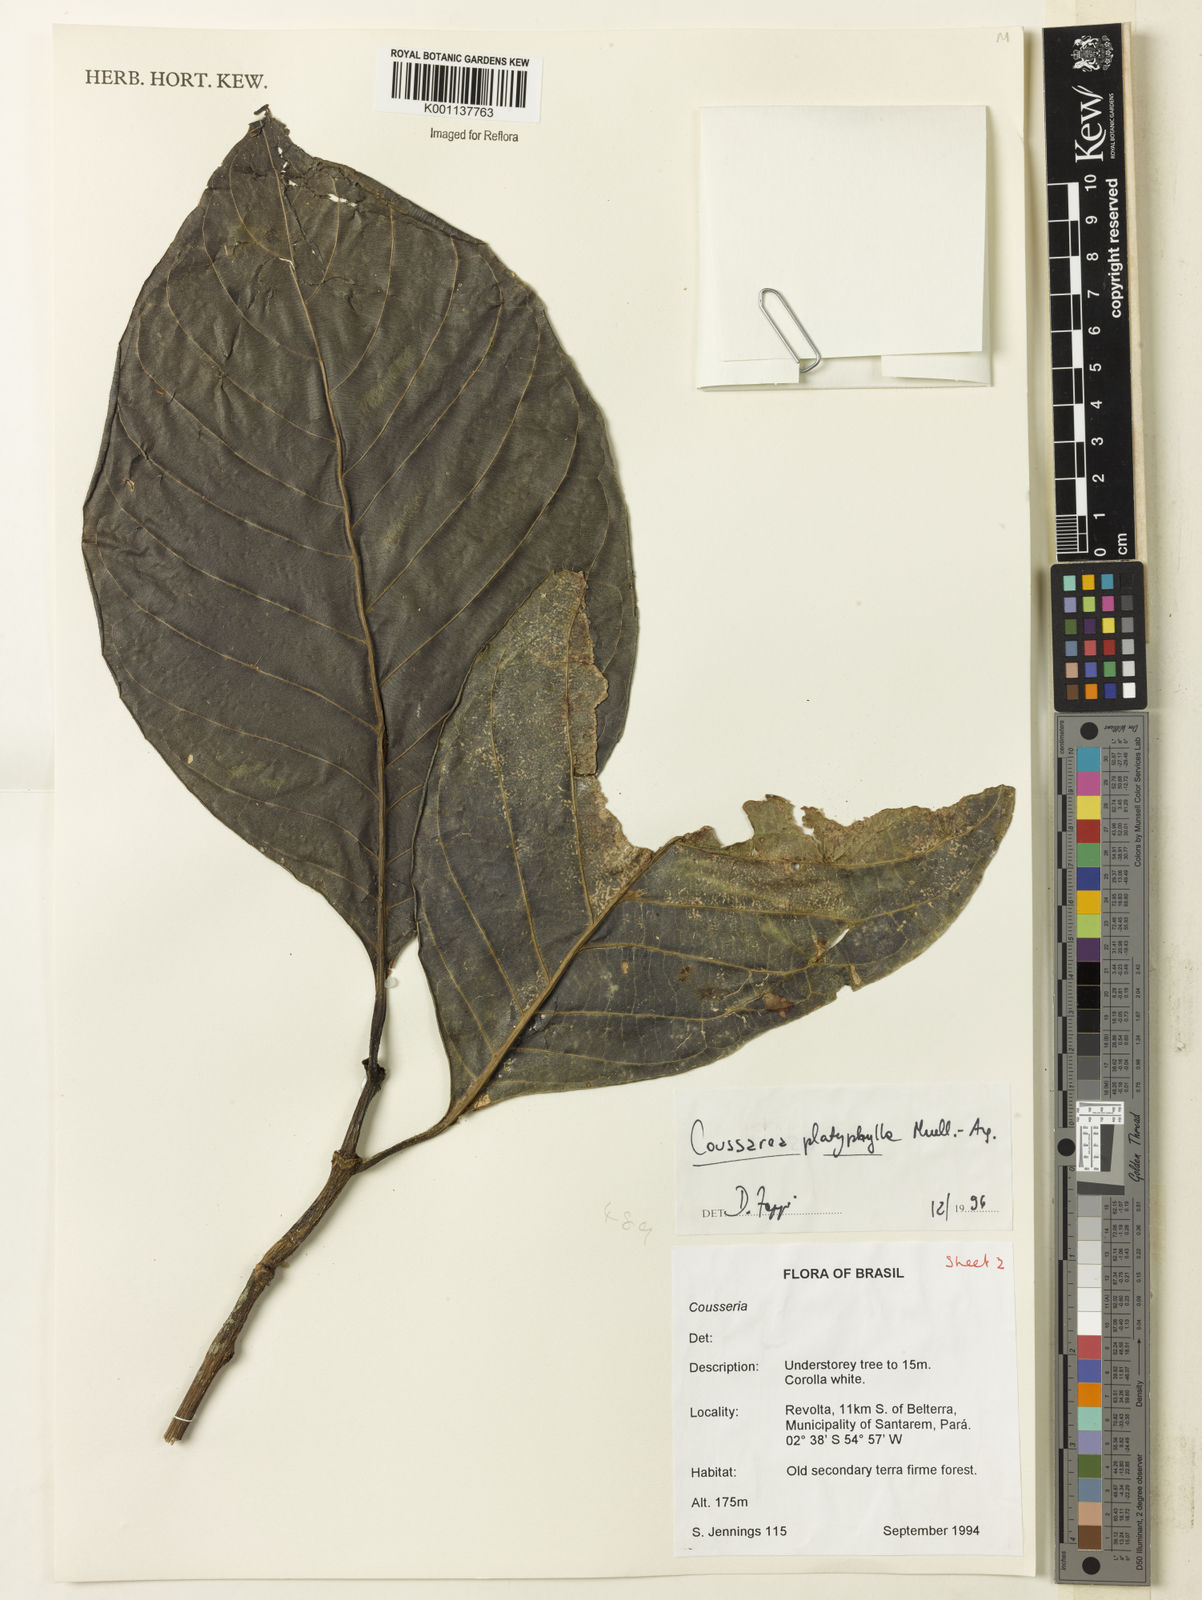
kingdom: Plantae
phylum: Tracheophyta
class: Magnoliopsida
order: Gentianales
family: Rubiaceae
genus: Coussarea
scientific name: Coussarea
